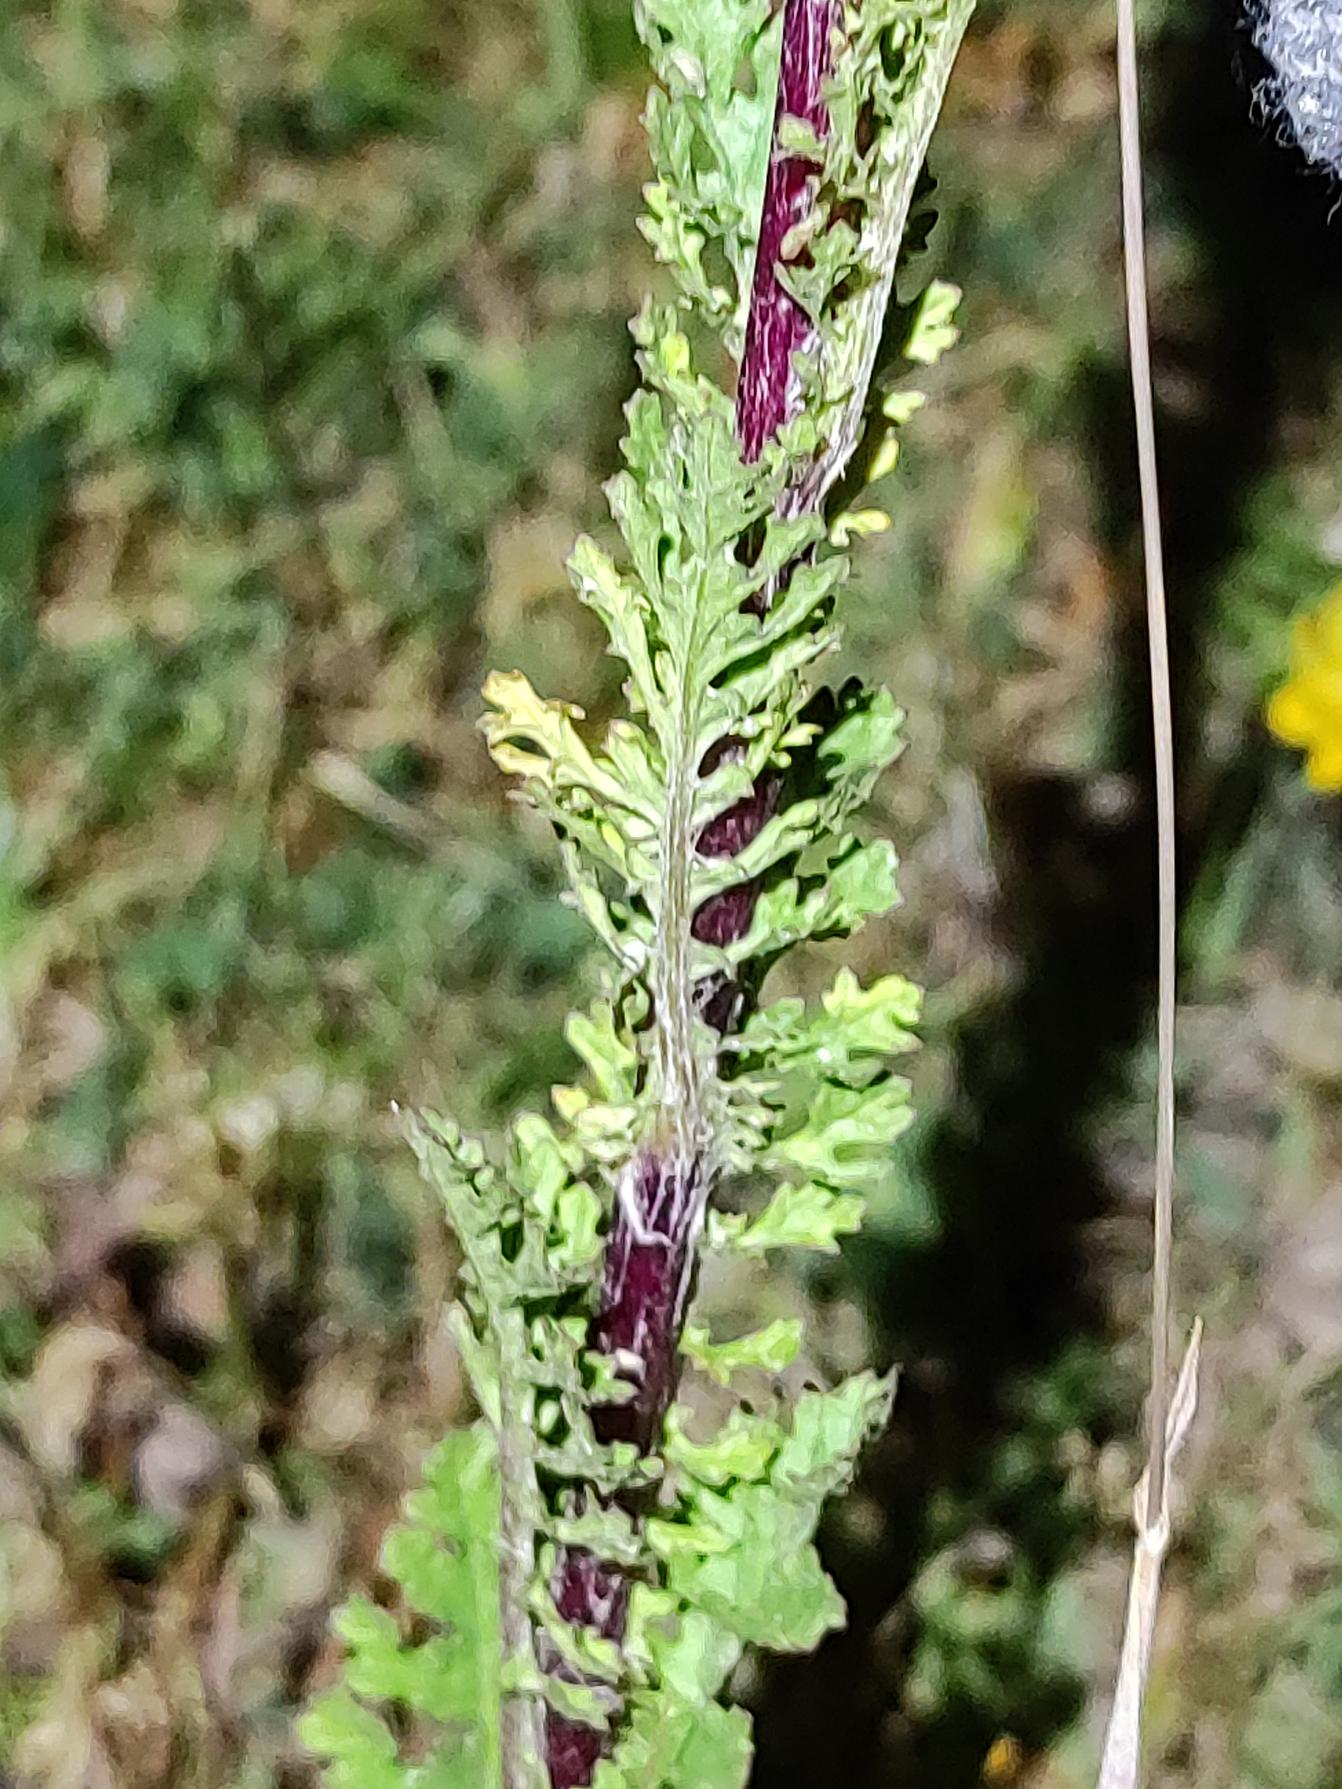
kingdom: Plantae
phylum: Tracheophyta
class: Magnoliopsida
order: Asterales
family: Asteraceae
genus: Jacobaea
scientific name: Jacobaea vulgaris
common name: Eng-brandbæger
